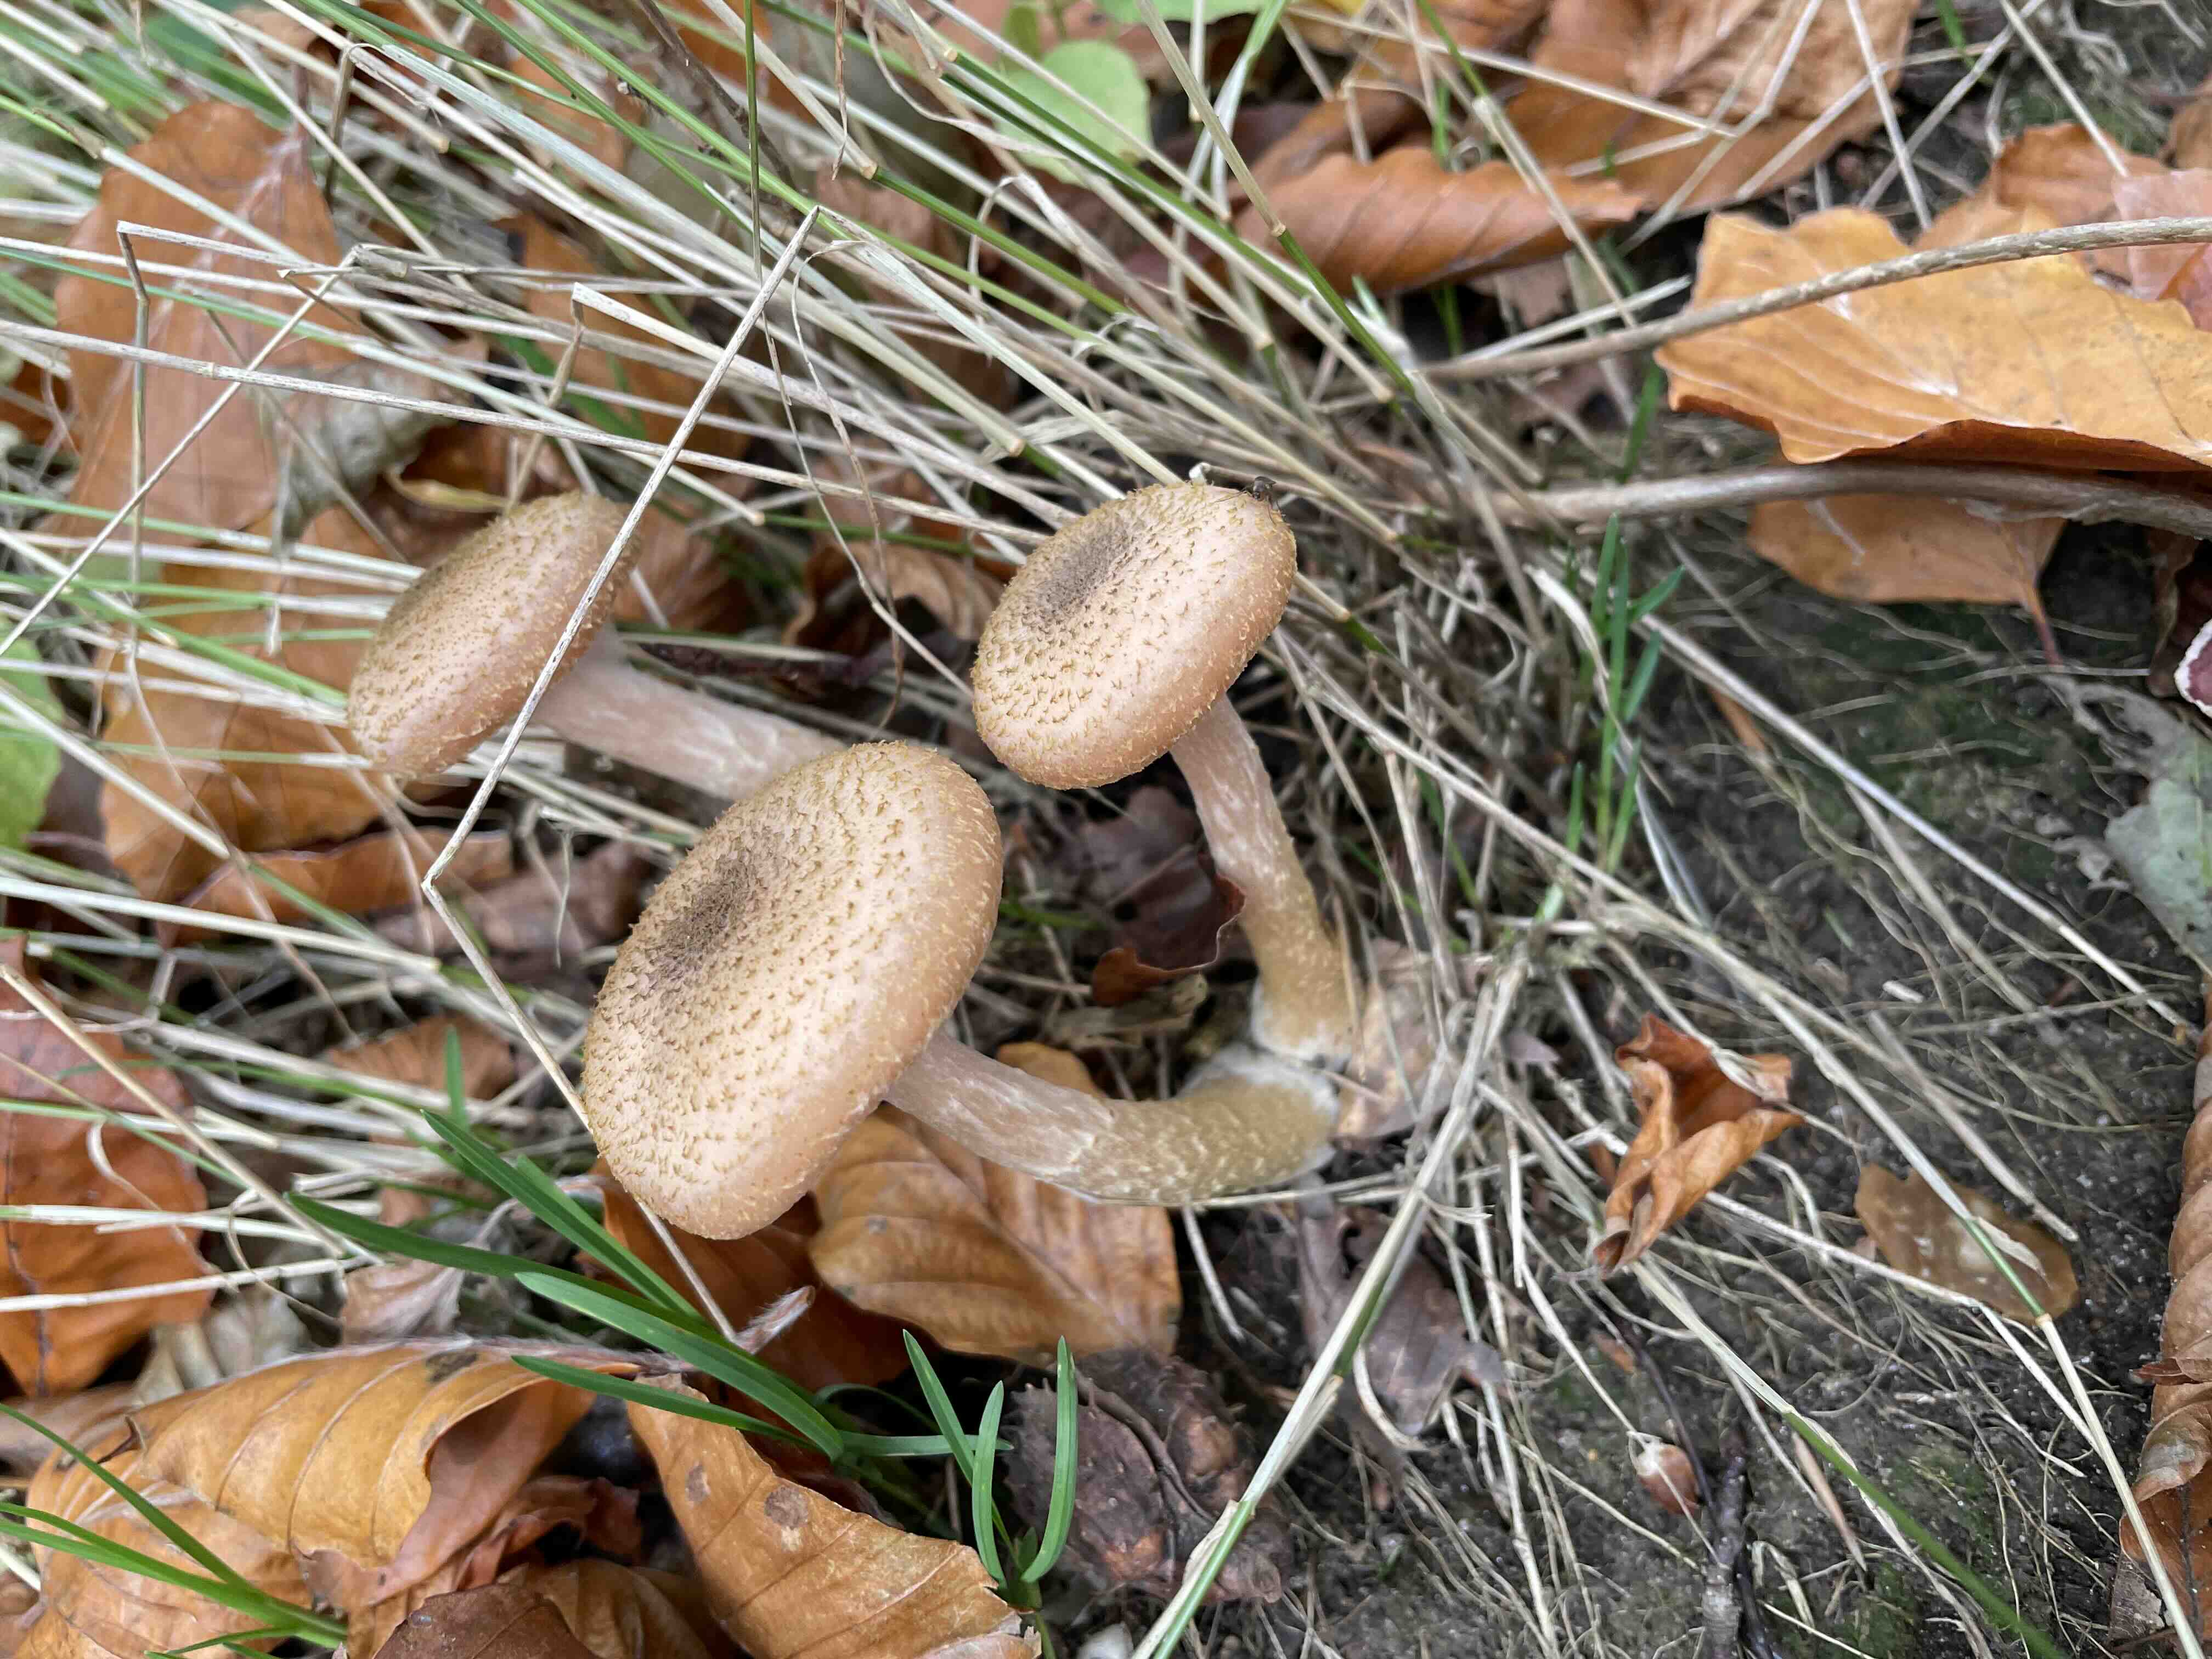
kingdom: Fungi
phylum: Basidiomycota
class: Agaricomycetes
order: Agaricales
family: Physalacriaceae
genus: Armillaria
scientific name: Armillaria
